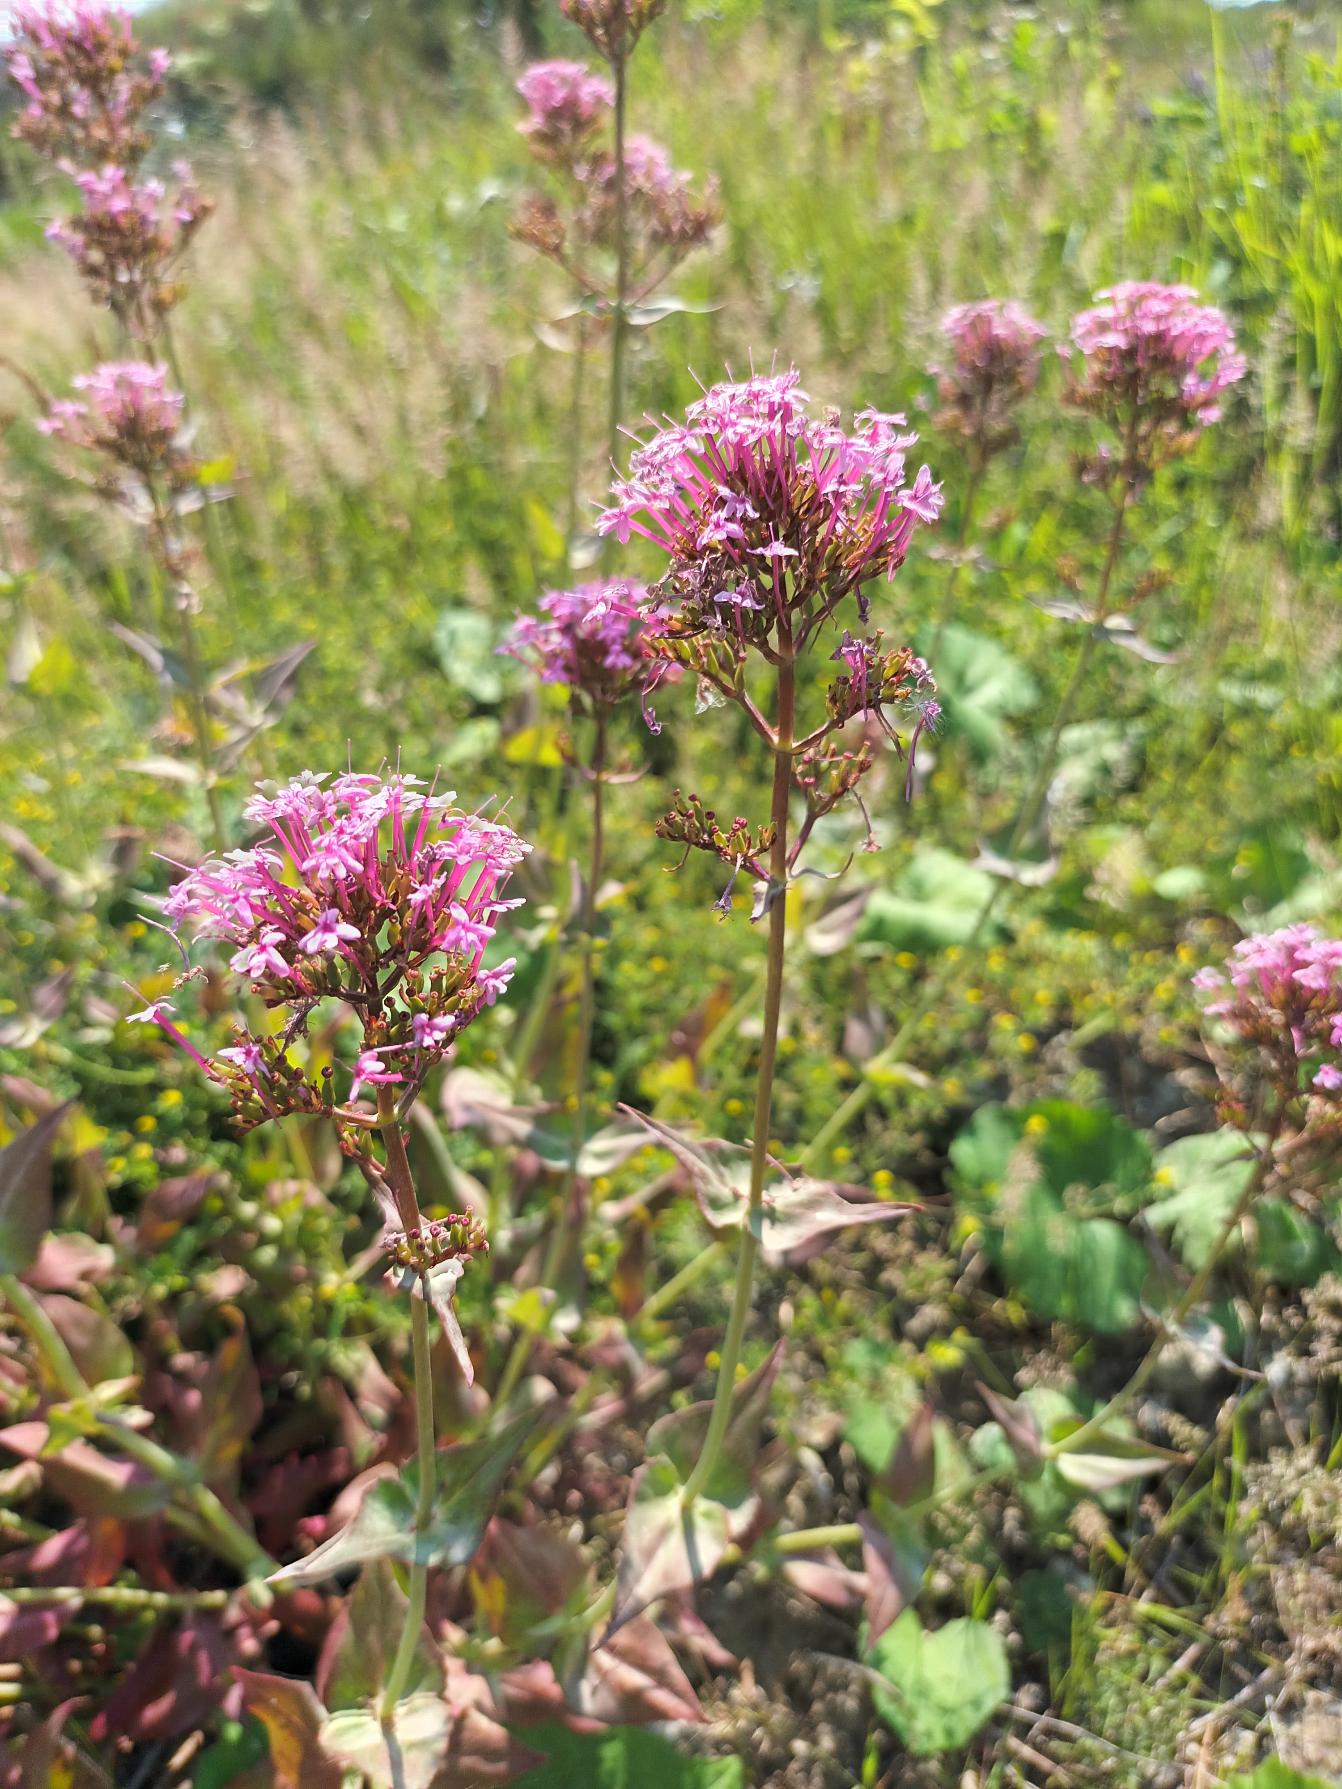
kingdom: Plantae
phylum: Tracheophyta
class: Magnoliopsida
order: Dipsacales
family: Caprifoliaceae
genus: Centranthus
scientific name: Centranthus ruber
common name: Sporebaldrian
